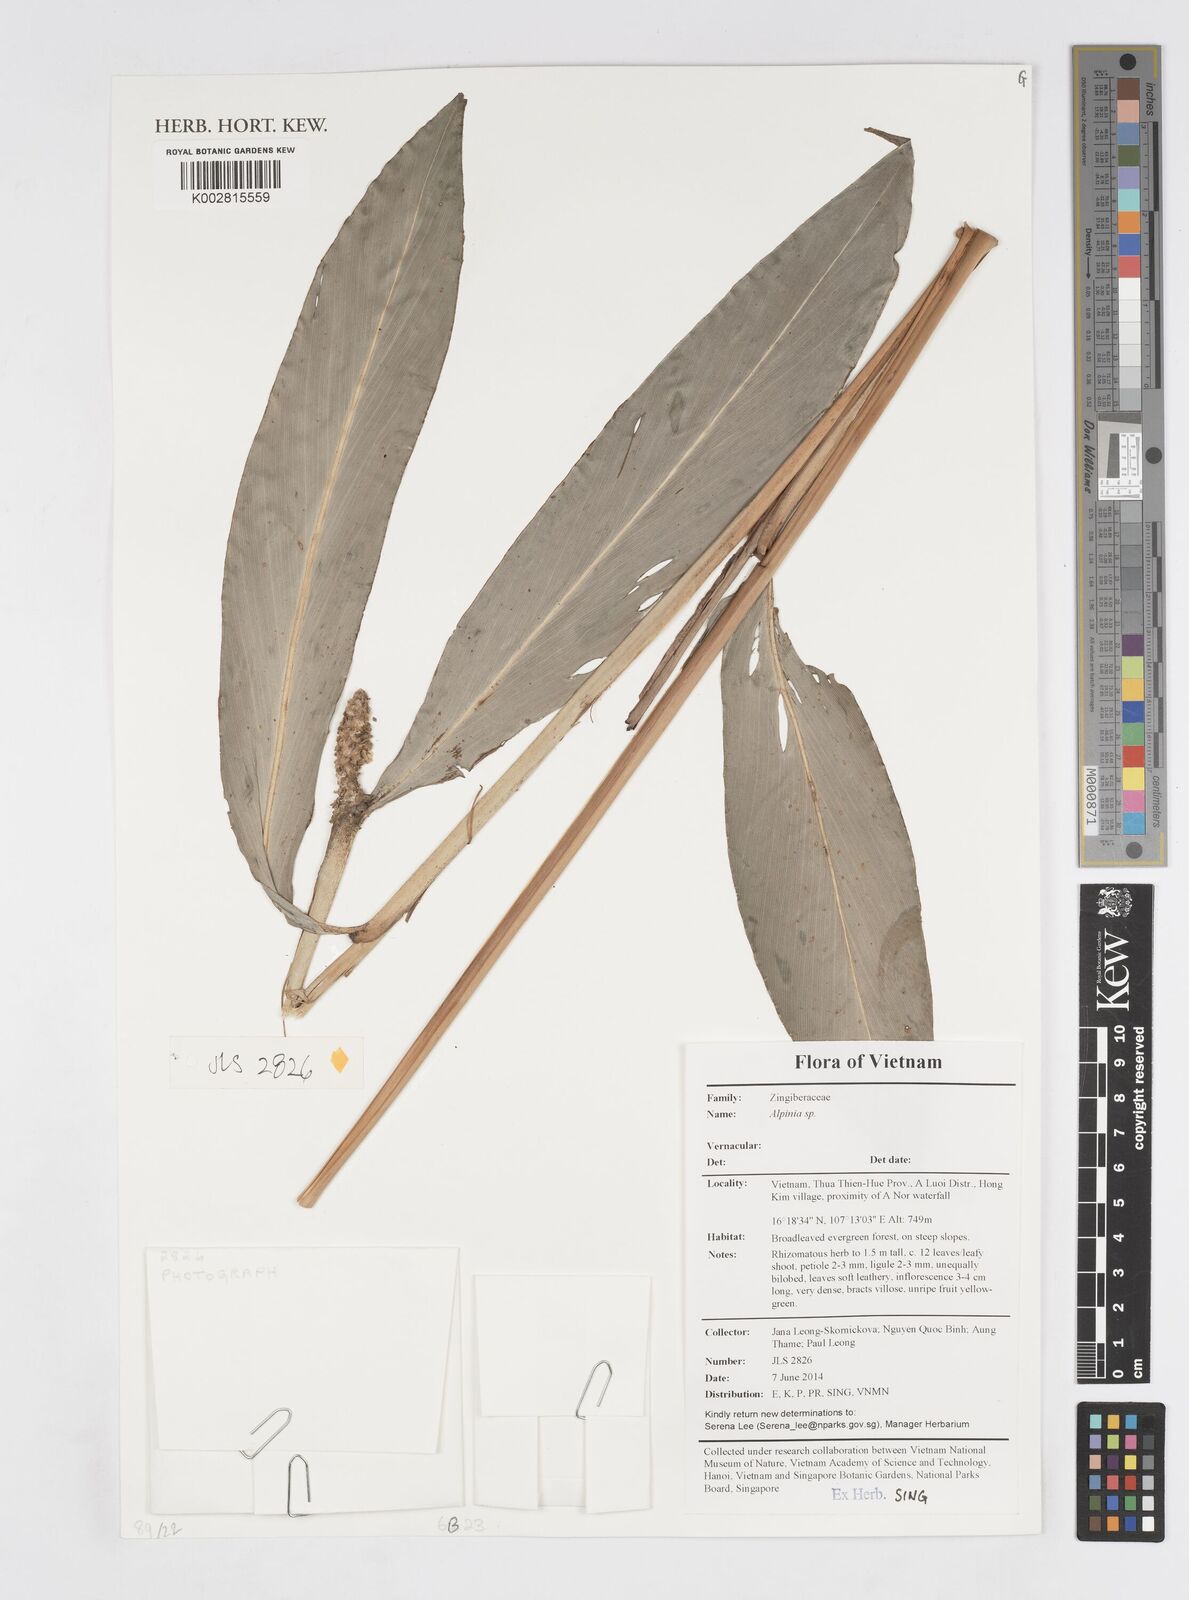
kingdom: Plantae
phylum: Tracheophyta
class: Liliopsida
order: Zingiberales
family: Zingiberaceae
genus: Alpinia
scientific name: Alpinia
